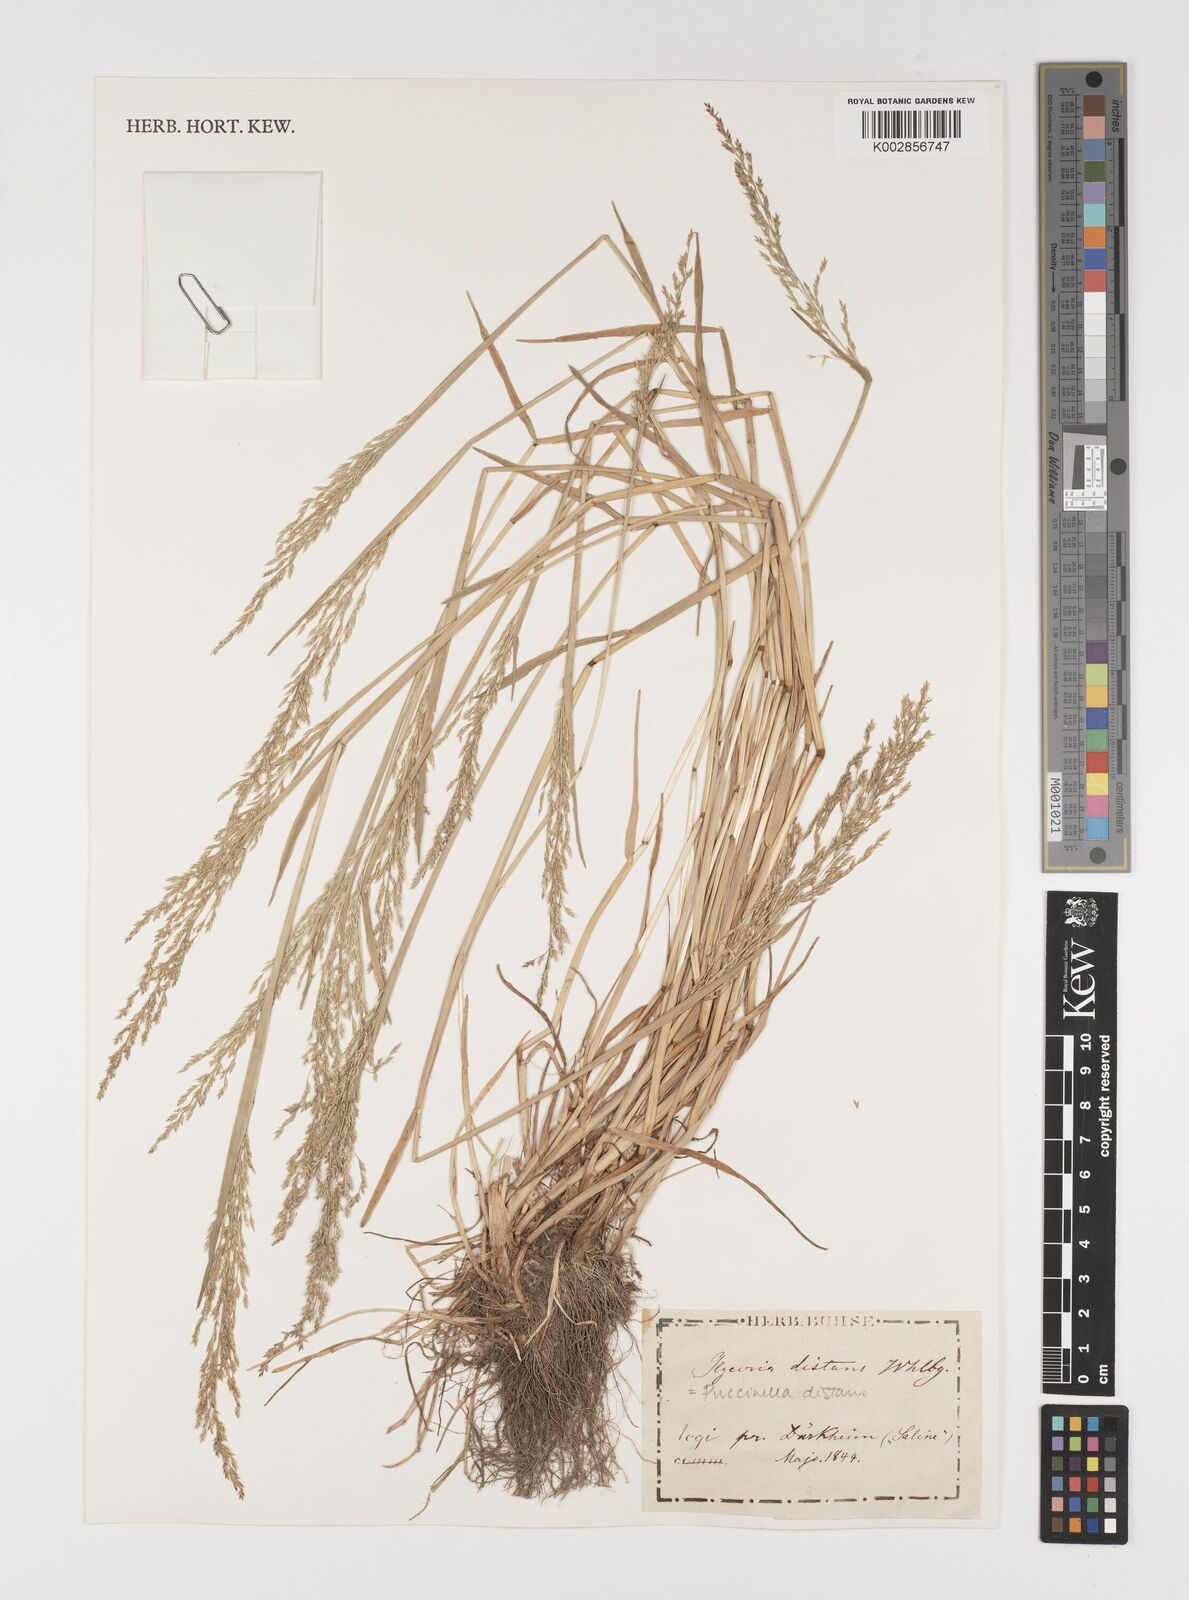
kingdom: Plantae
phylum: Tracheophyta
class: Liliopsida
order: Poales
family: Poaceae
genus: Puccinellia
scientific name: Puccinellia
